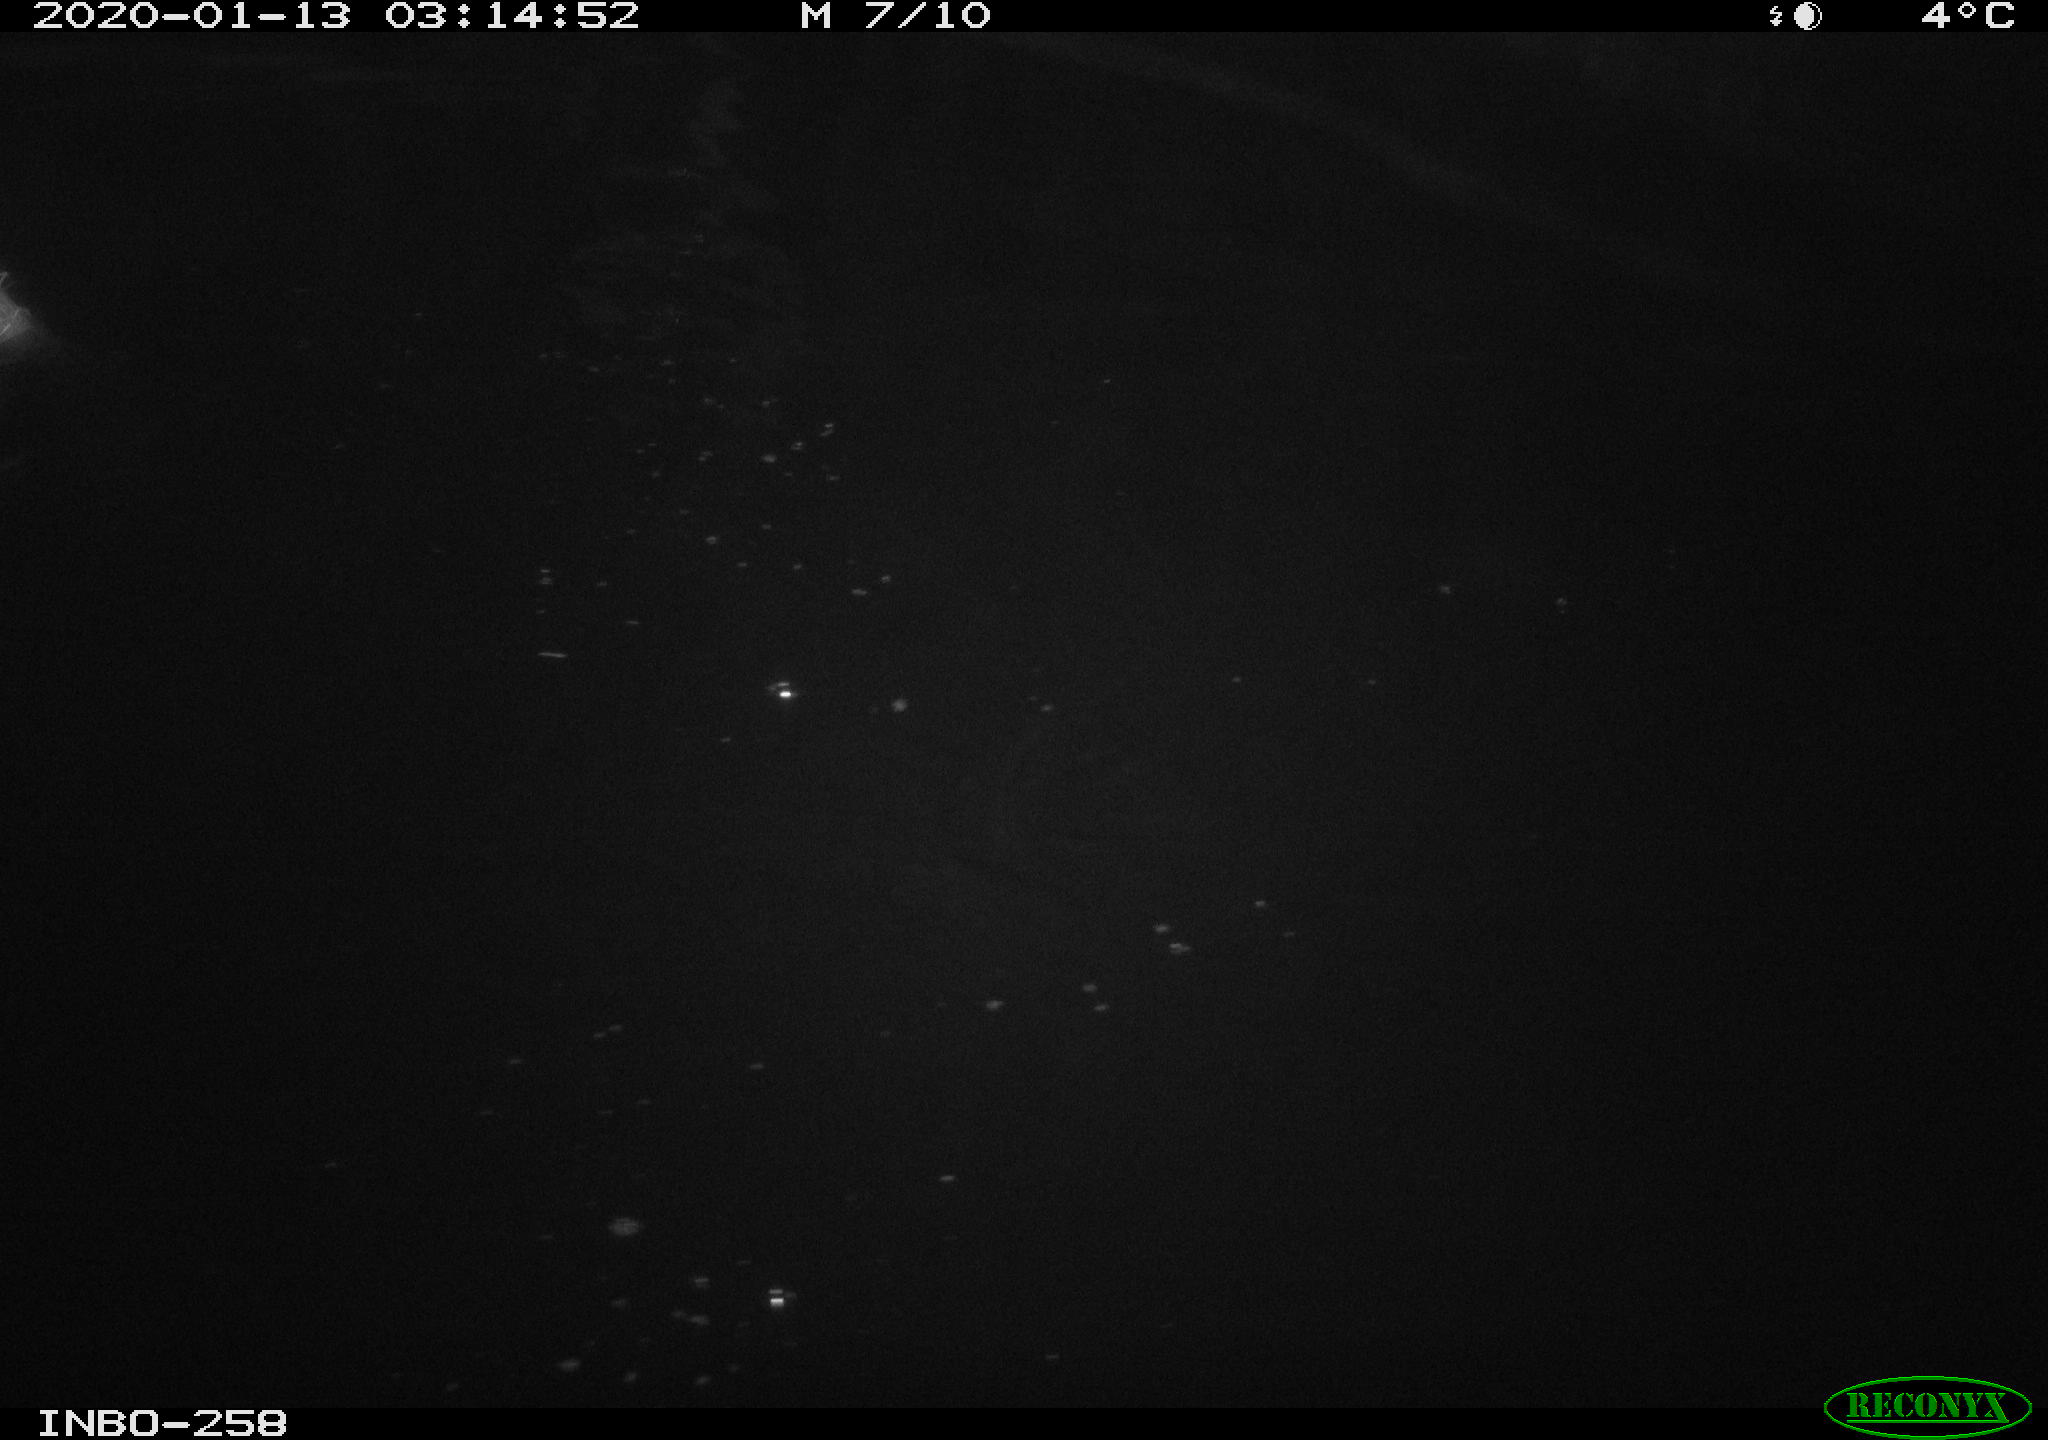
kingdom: Animalia
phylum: Chordata
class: Aves
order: Anseriformes
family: Anatidae
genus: Anas
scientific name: Anas platyrhynchos
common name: Mallard
